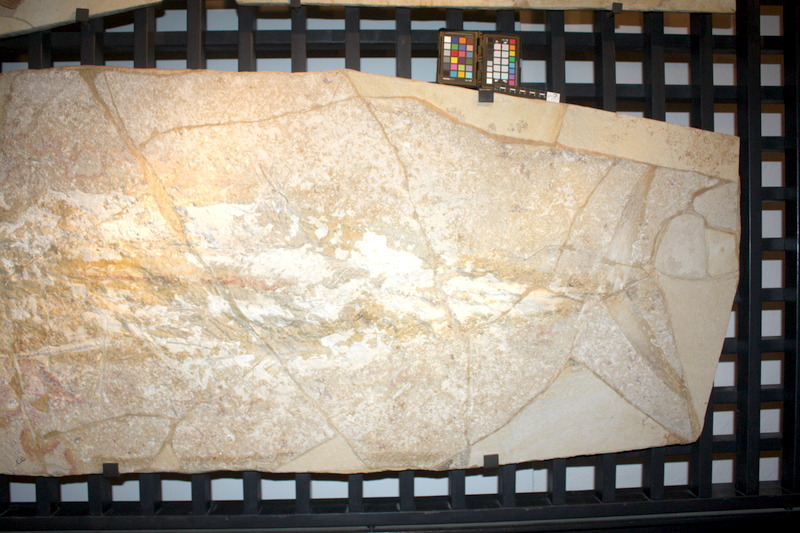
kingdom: Animalia
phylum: Chordata
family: Pachycormidae
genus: Asthenocormus
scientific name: Asthenocormus titanius
